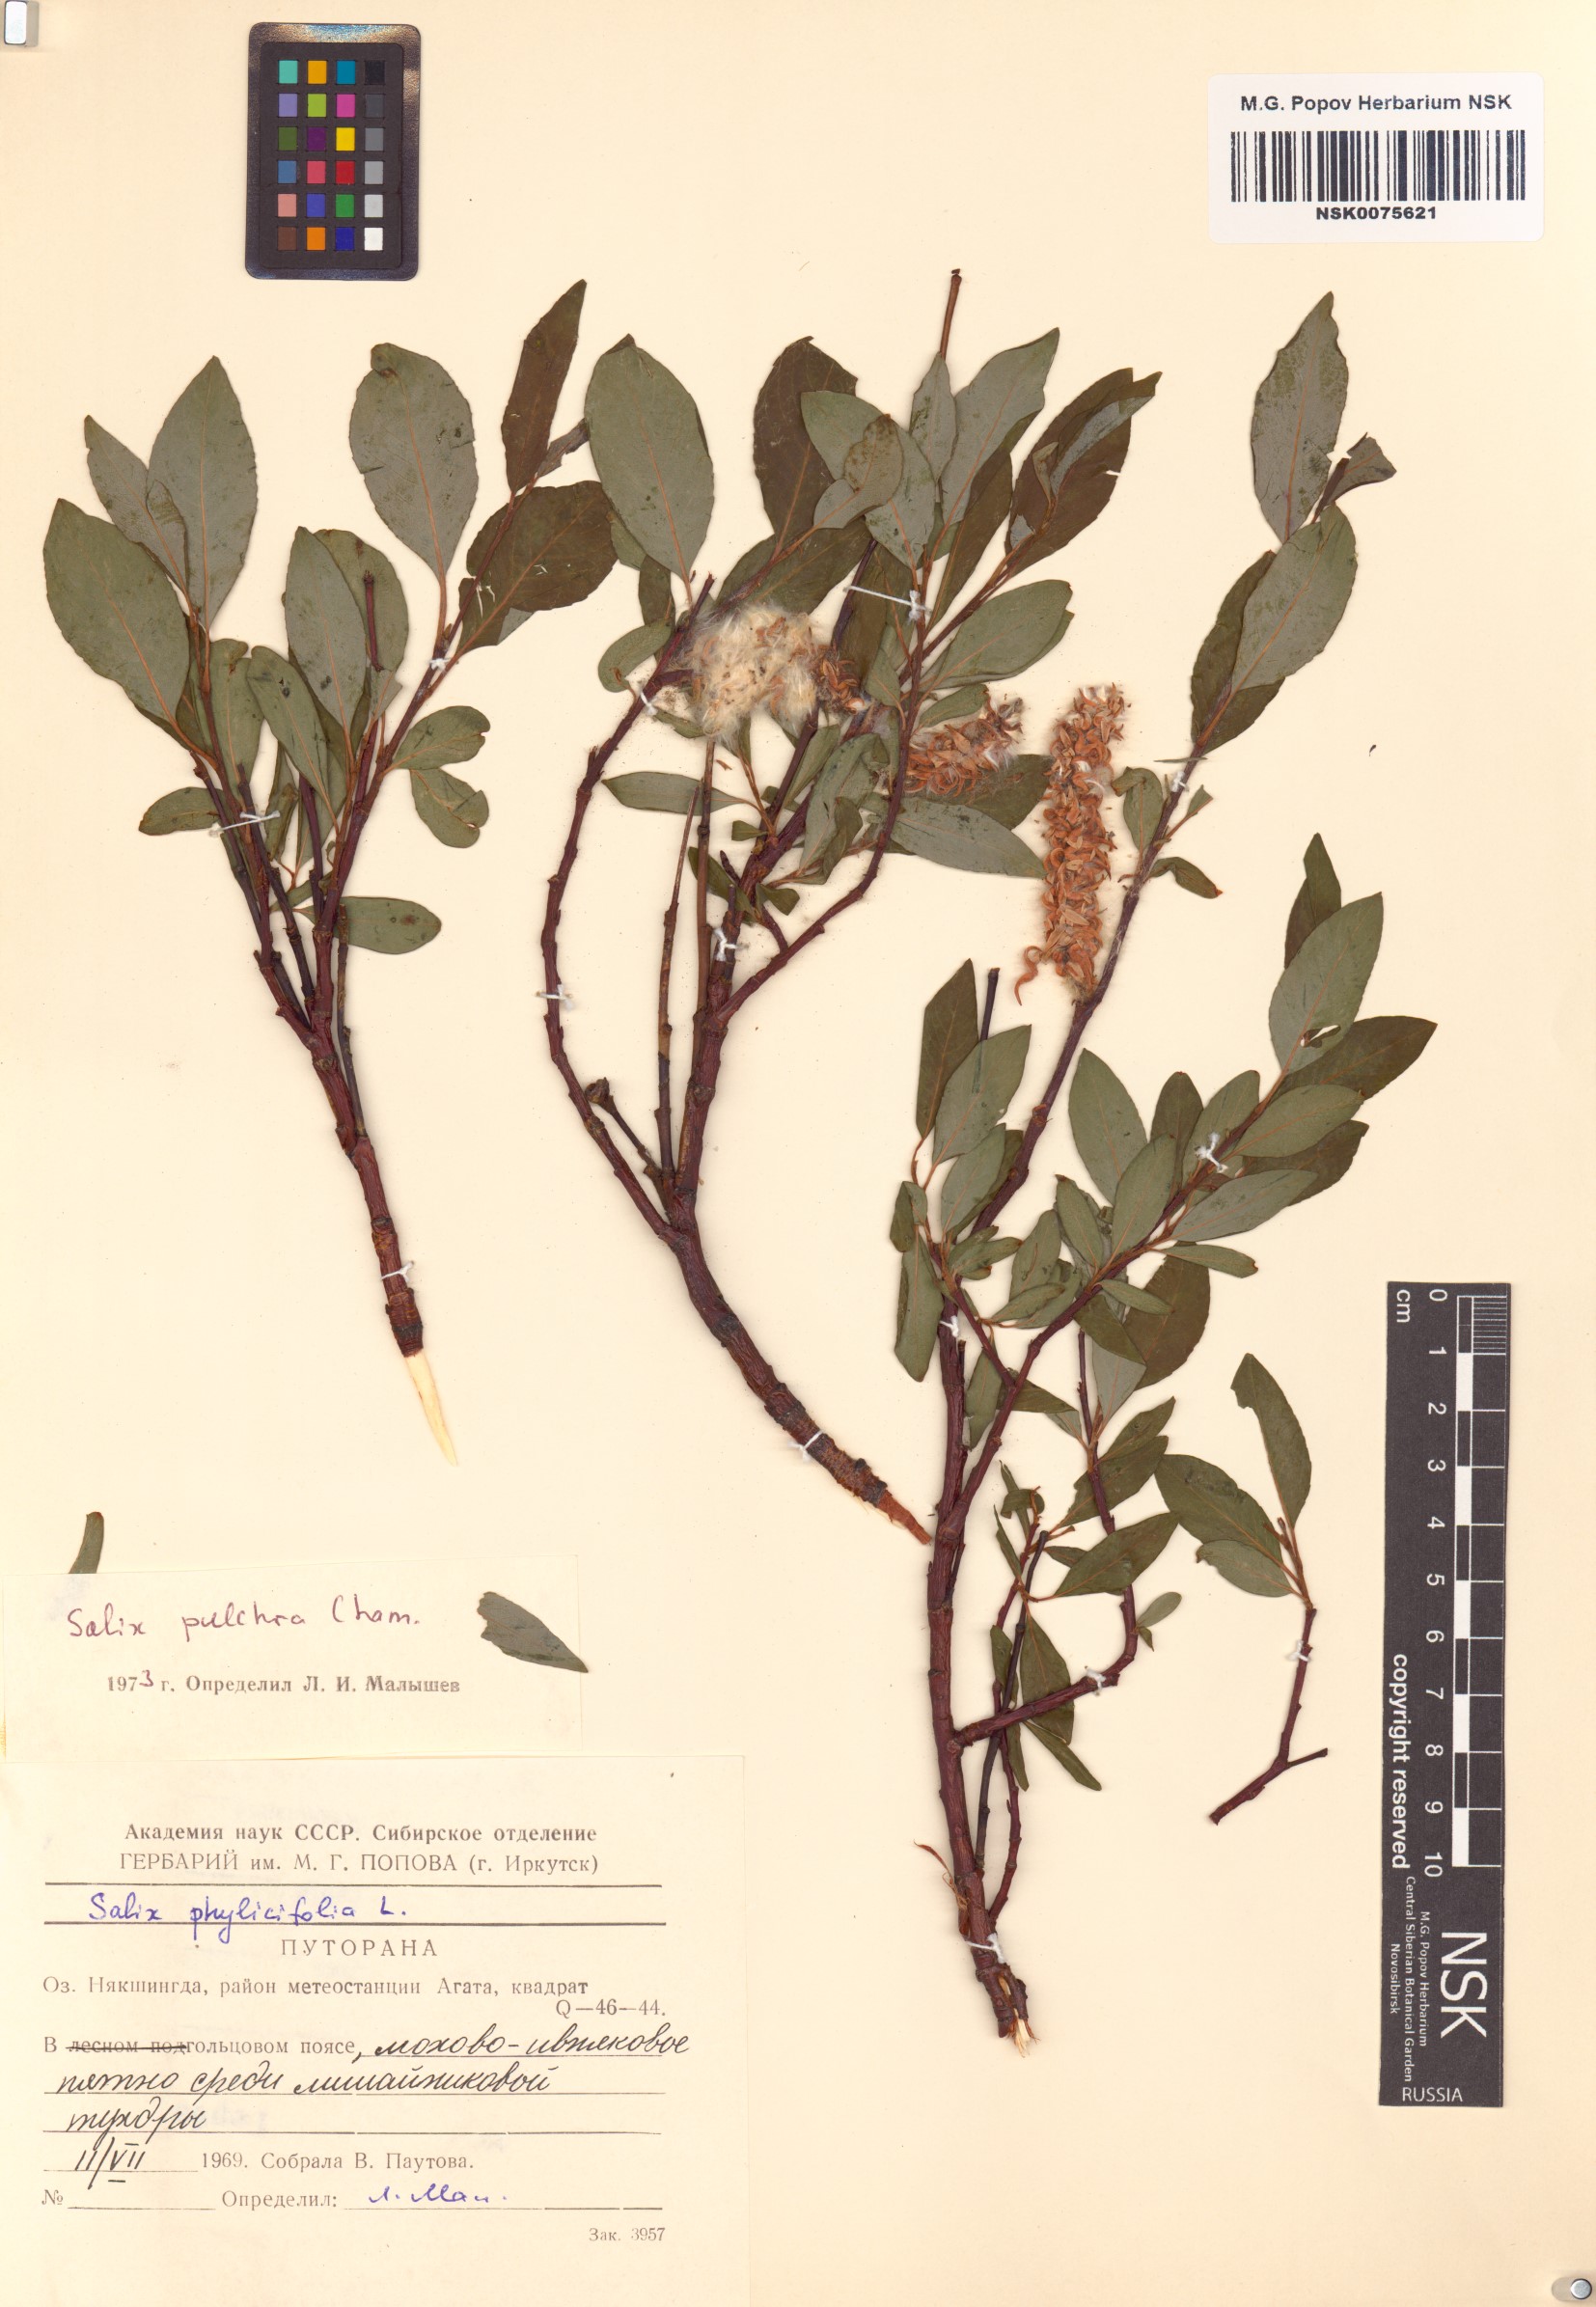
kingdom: Plantae
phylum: Tracheophyta
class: Magnoliopsida
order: Malpighiales
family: Salicaceae
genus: Salix
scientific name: Salix pulchra
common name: Diamond-leaved willow
